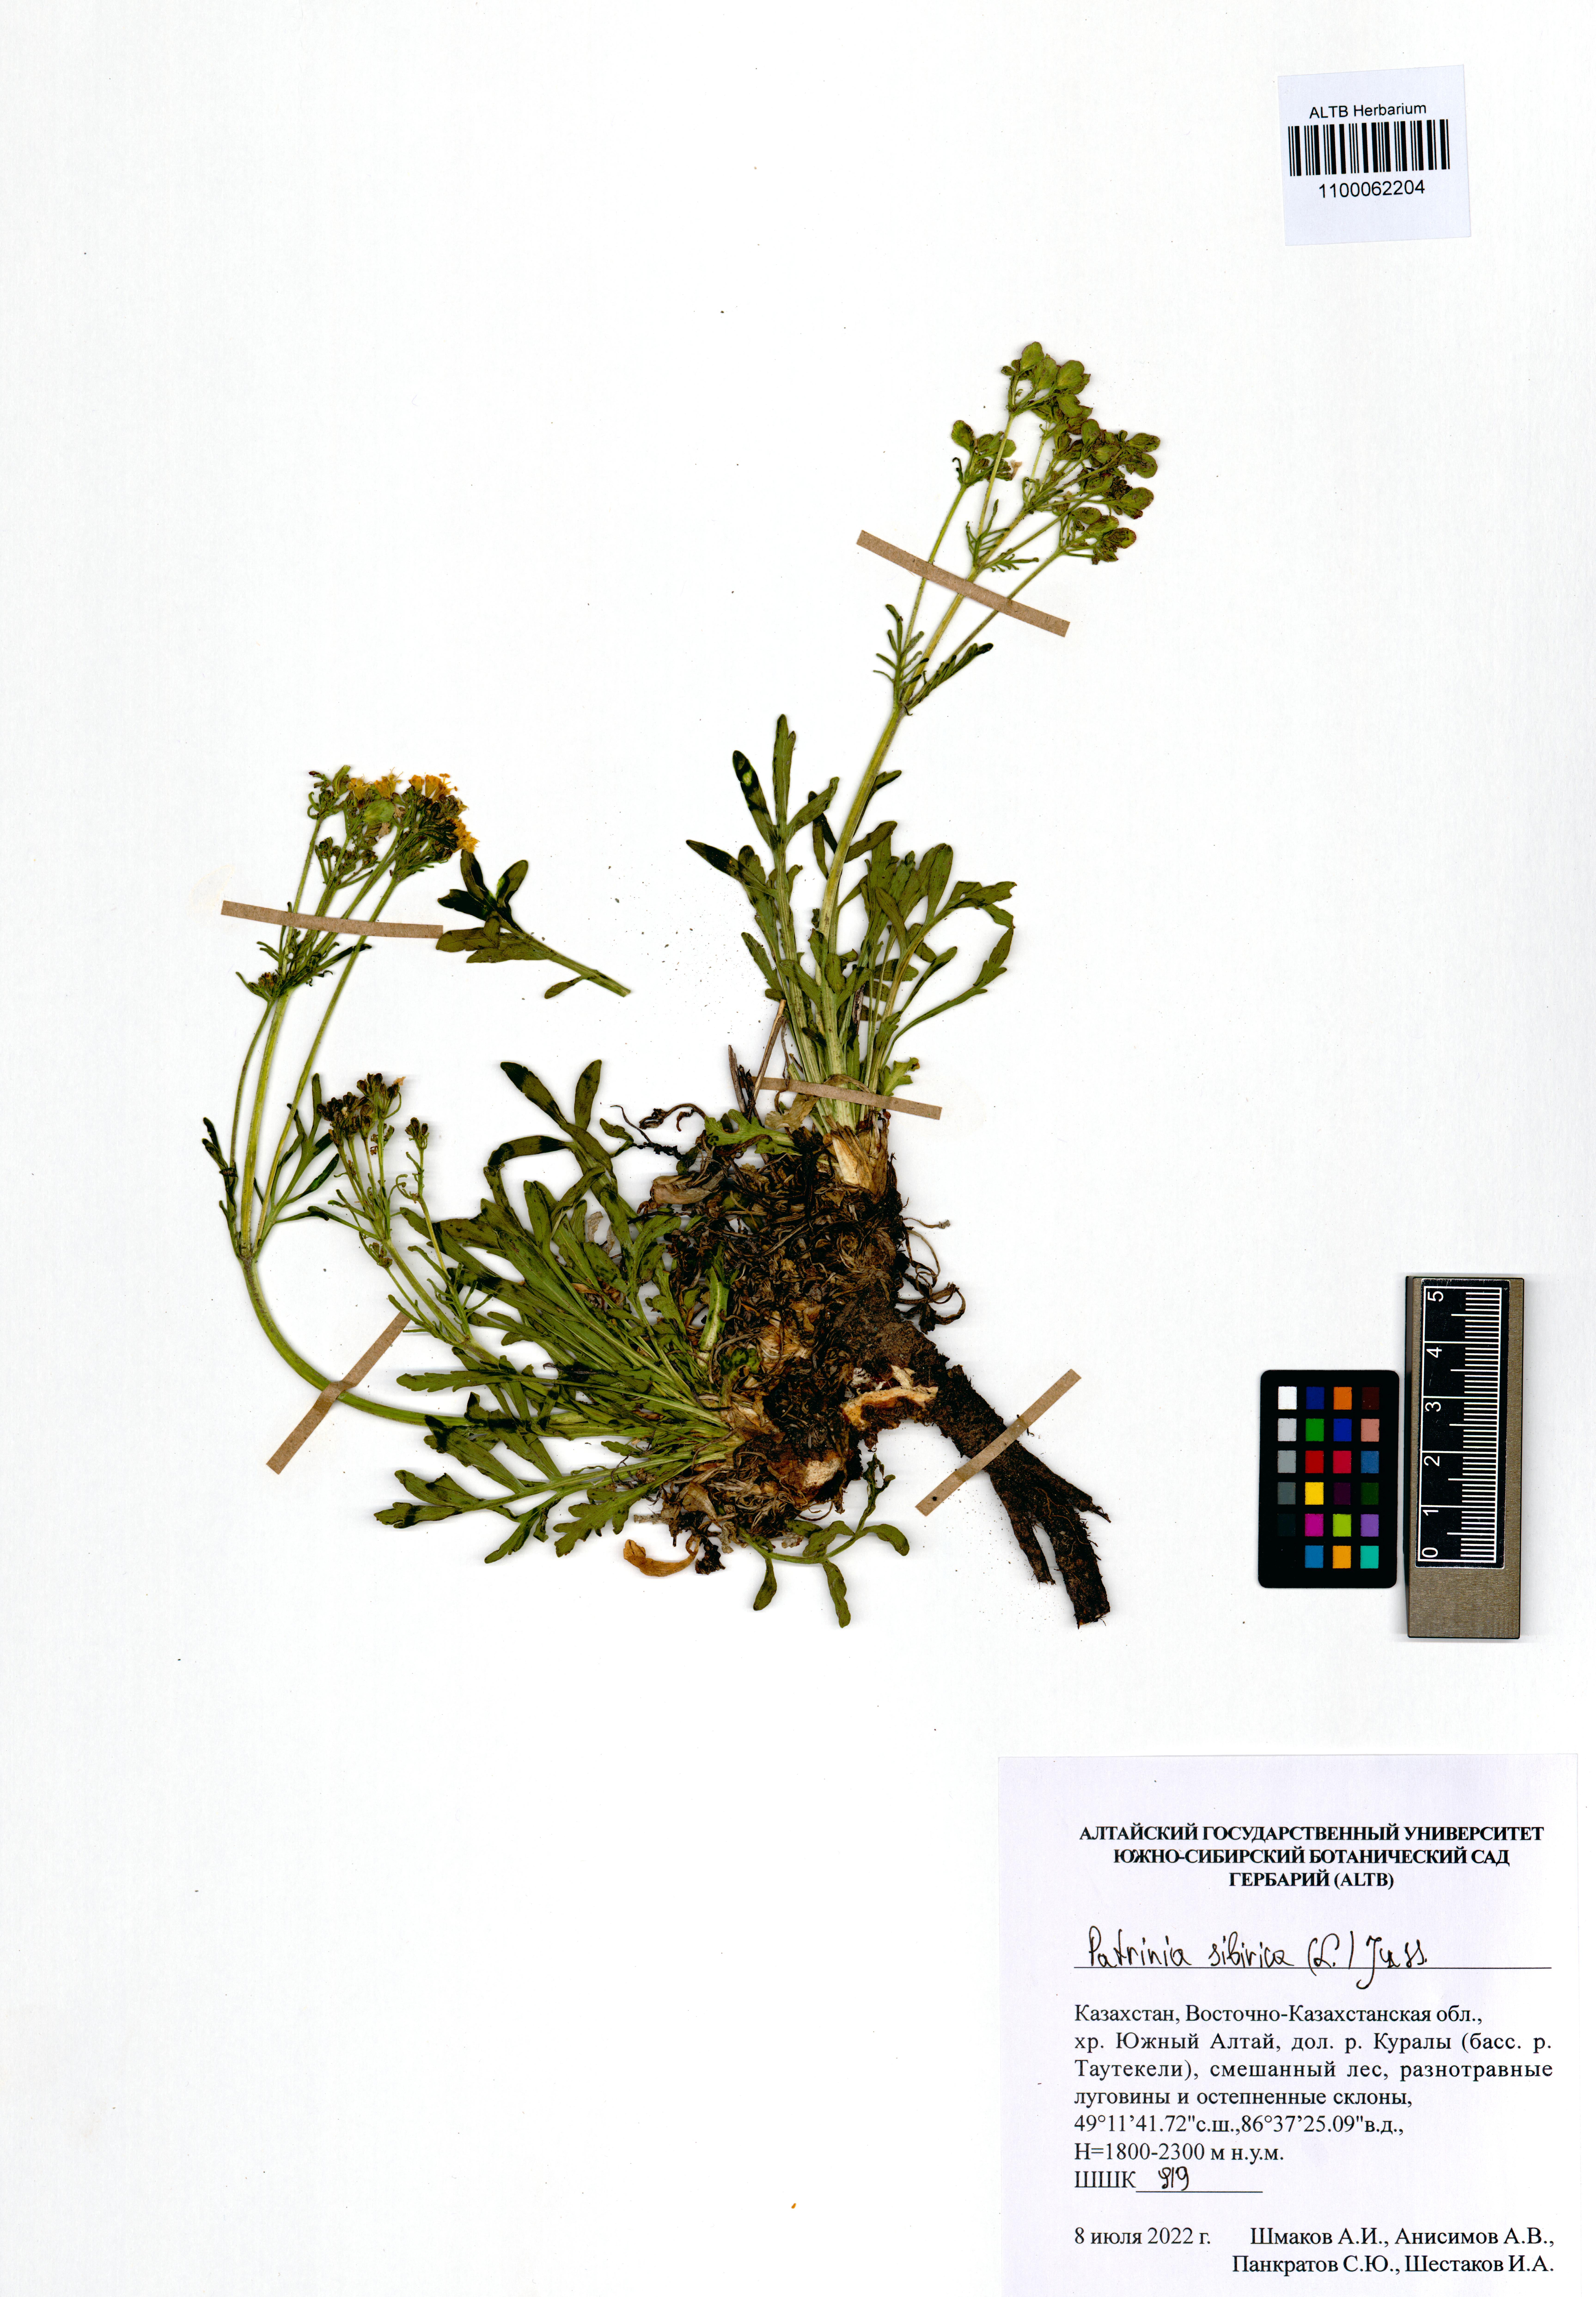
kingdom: Plantae
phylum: Tracheophyta
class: Magnoliopsida
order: Dipsacales
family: Caprifoliaceae
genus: Patrinia
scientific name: Patrinia sibirica
